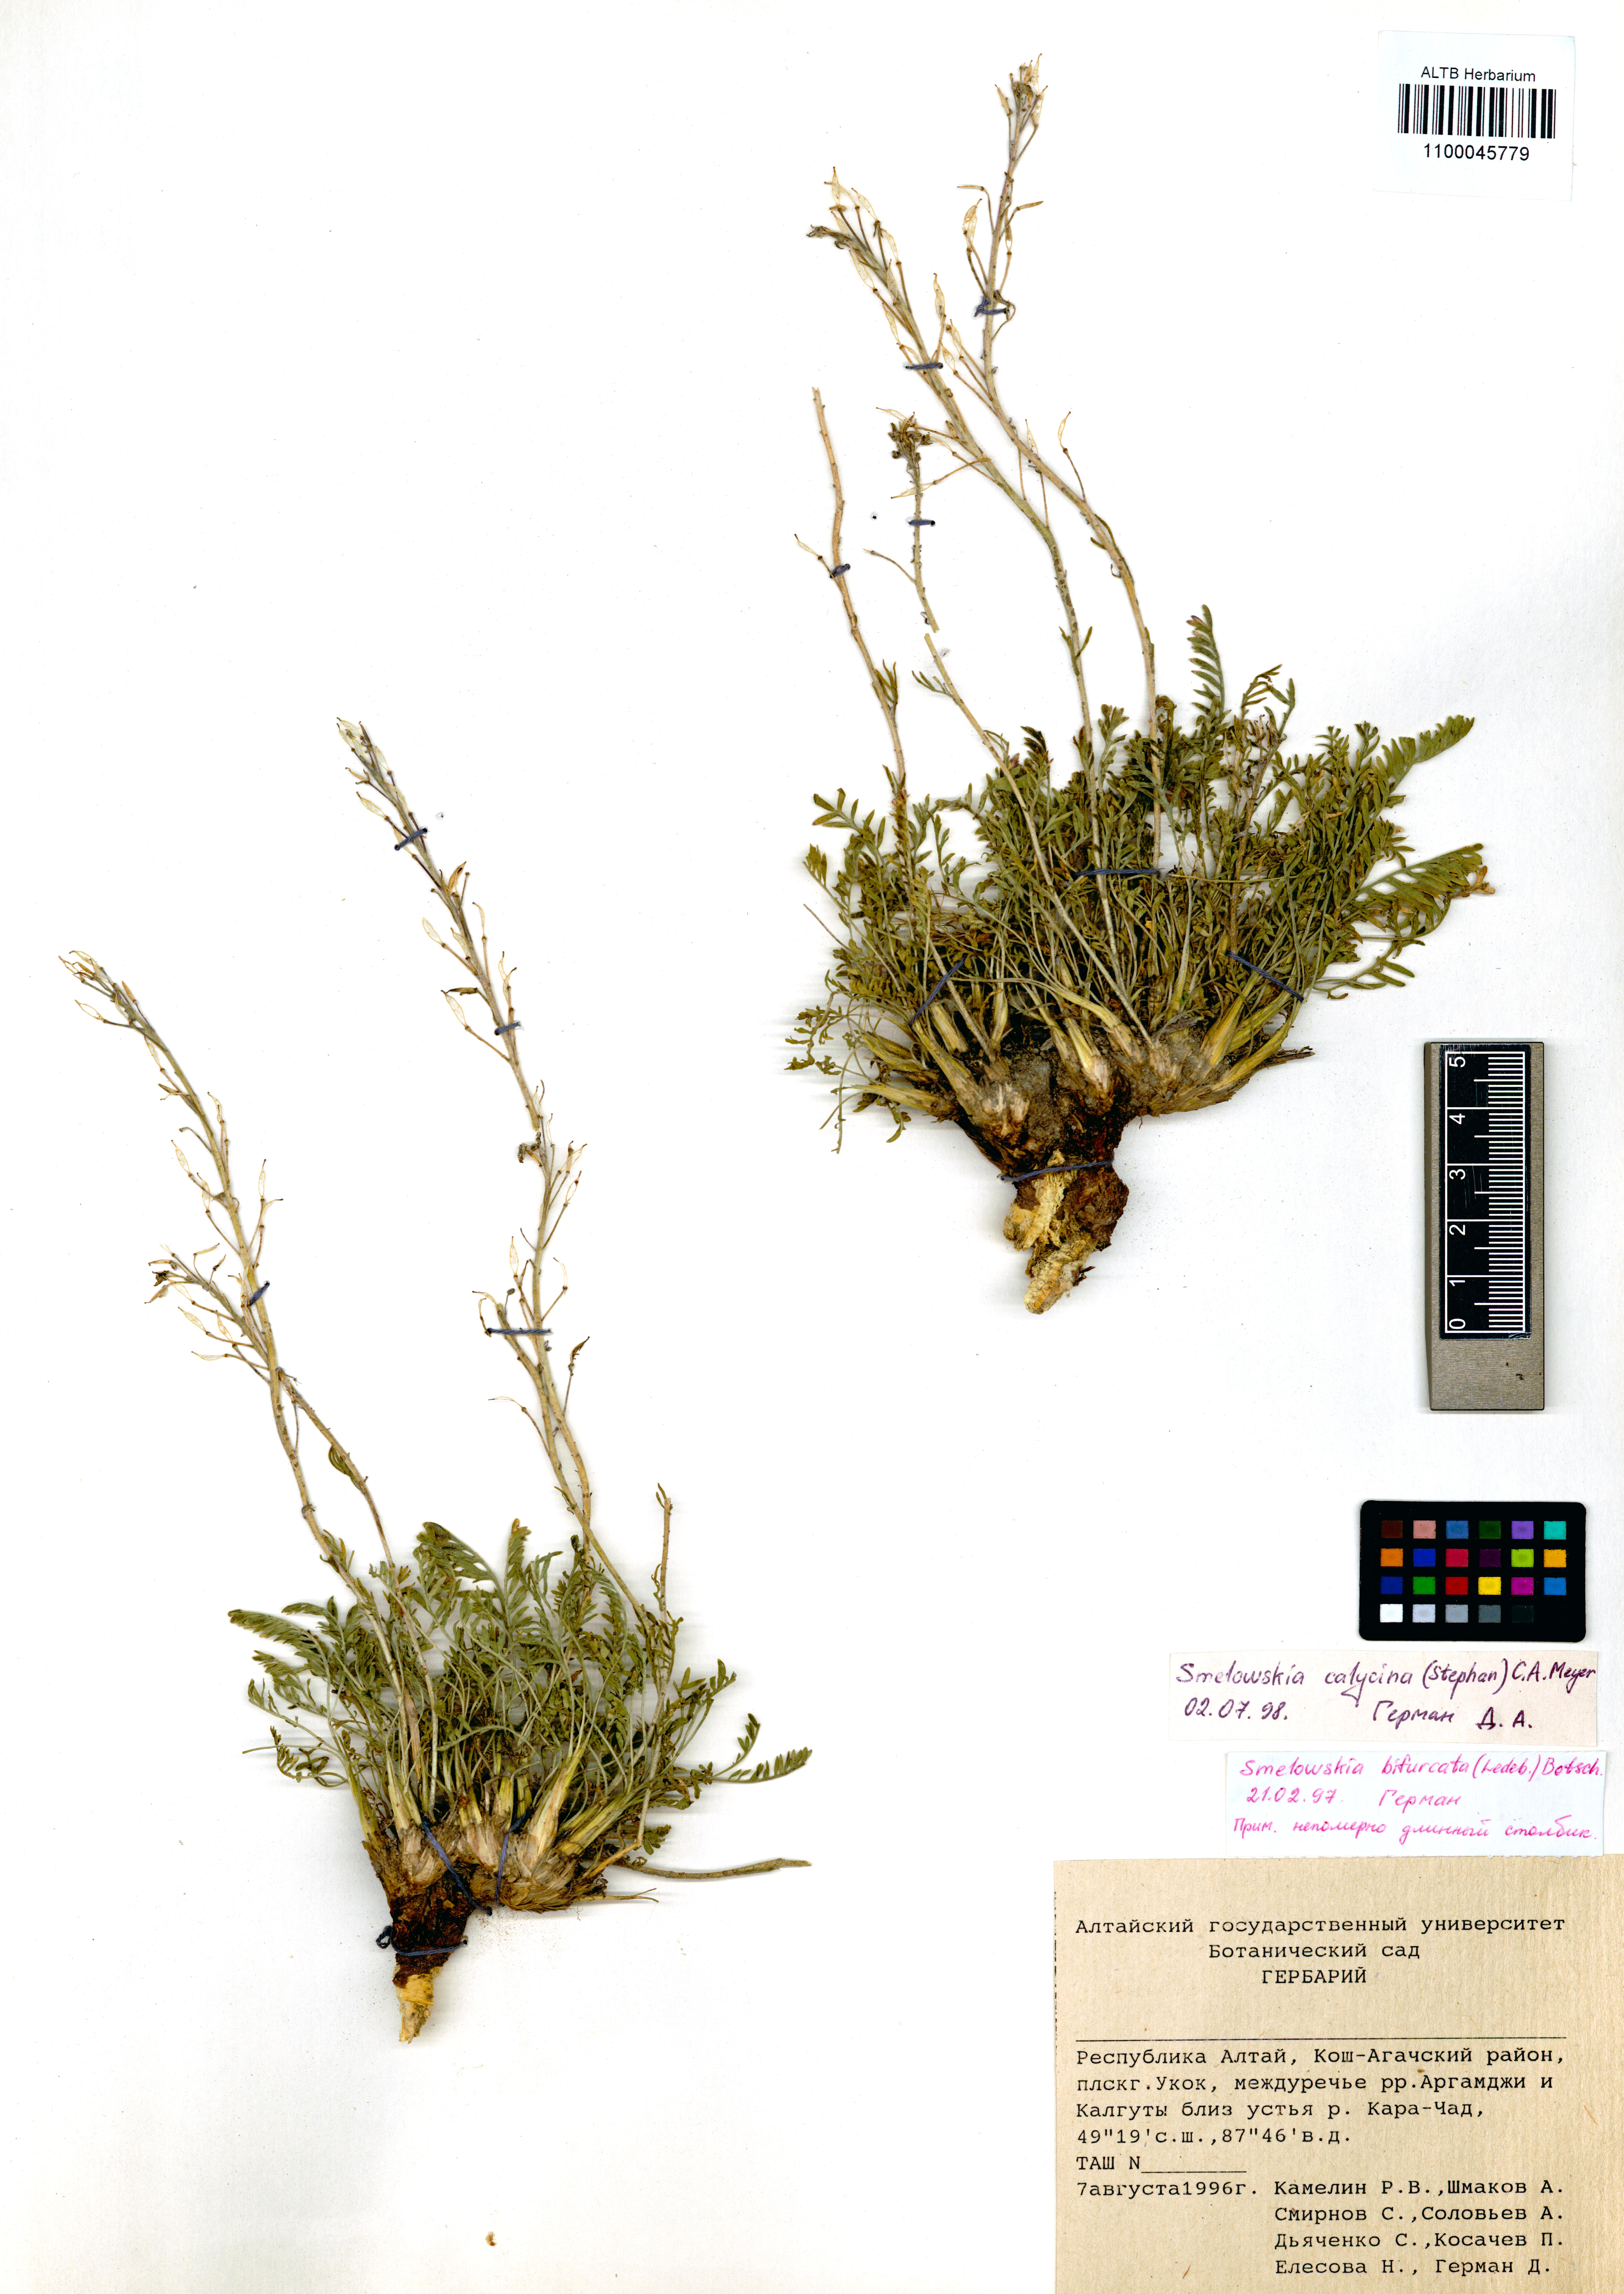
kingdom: Plantae
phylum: Tracheophyta
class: Magnoliopsida
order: Brassicales
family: Brassicaceae
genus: Smelowskia
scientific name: Smelowskia calycina
